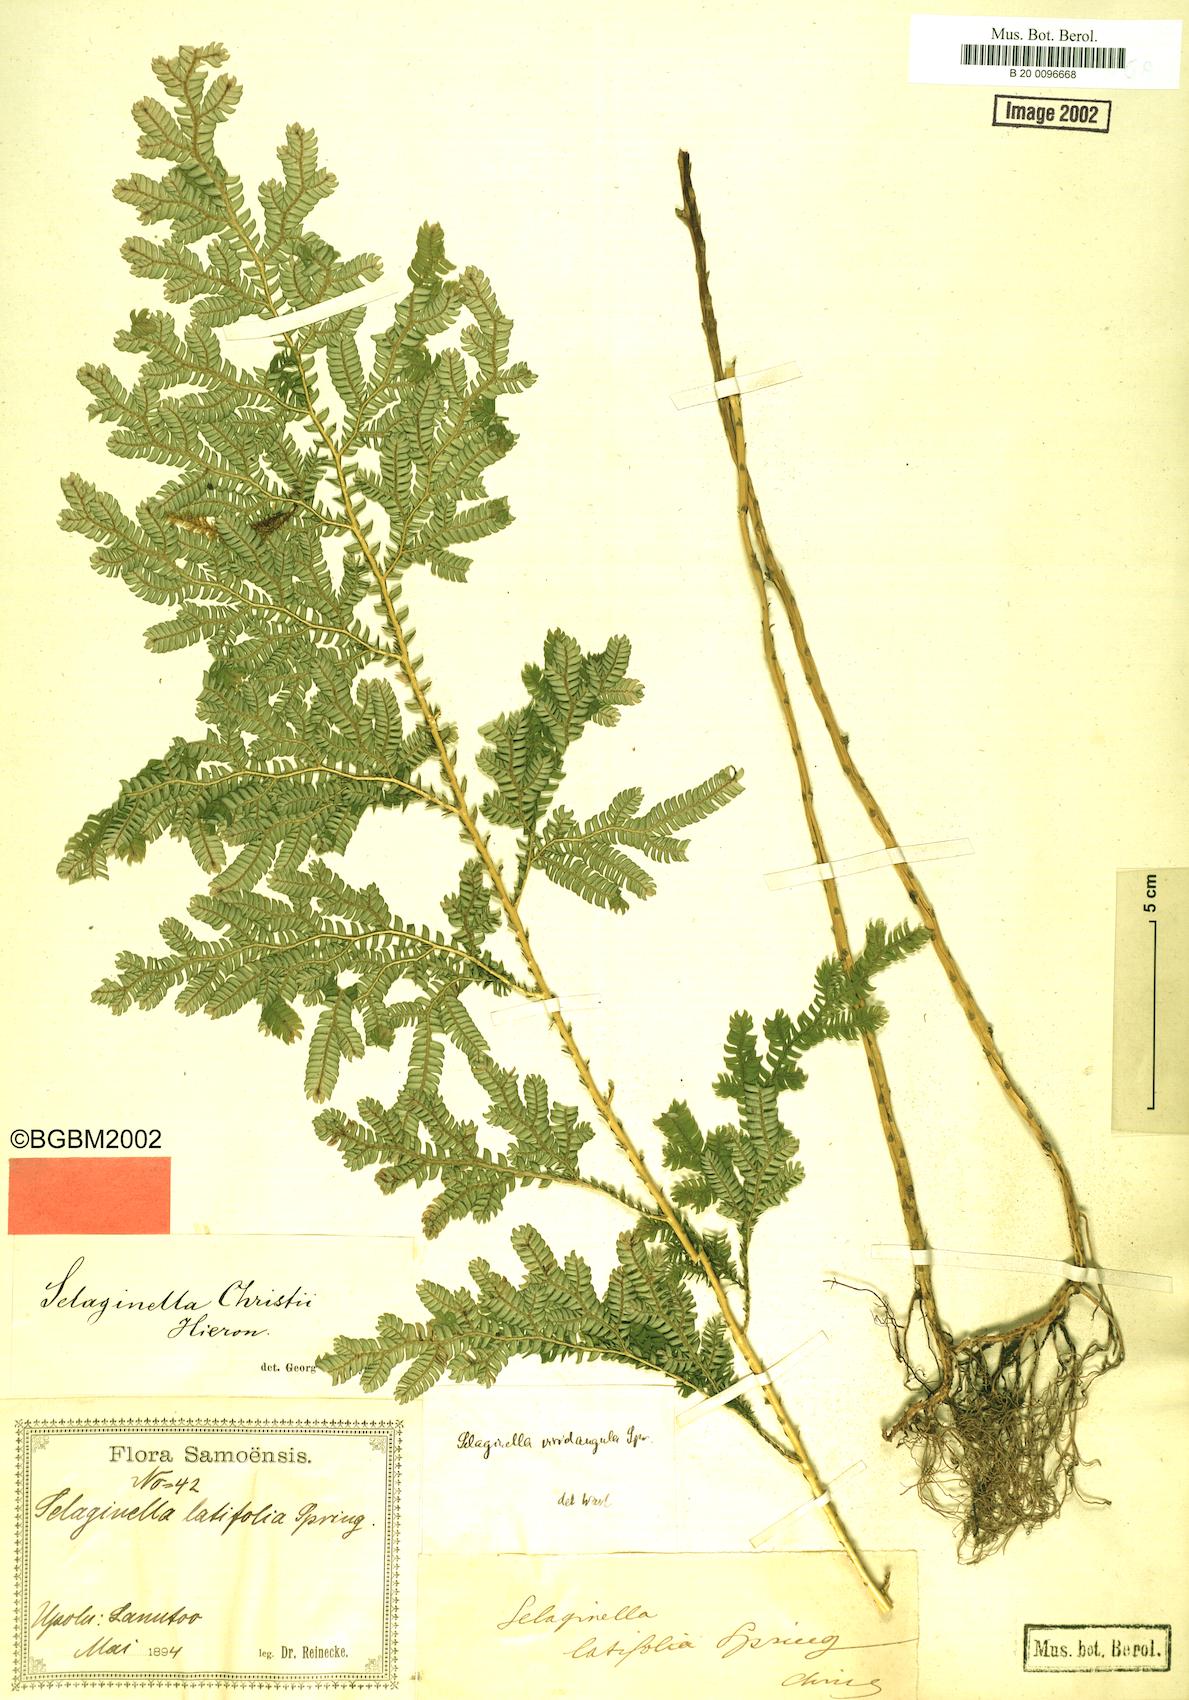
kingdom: Plantae
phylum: Tracheophyta
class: Lycopodiopsida
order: Selaginellales
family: Selaginellaceae
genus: Selaginella
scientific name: Selaginella whitmeei
